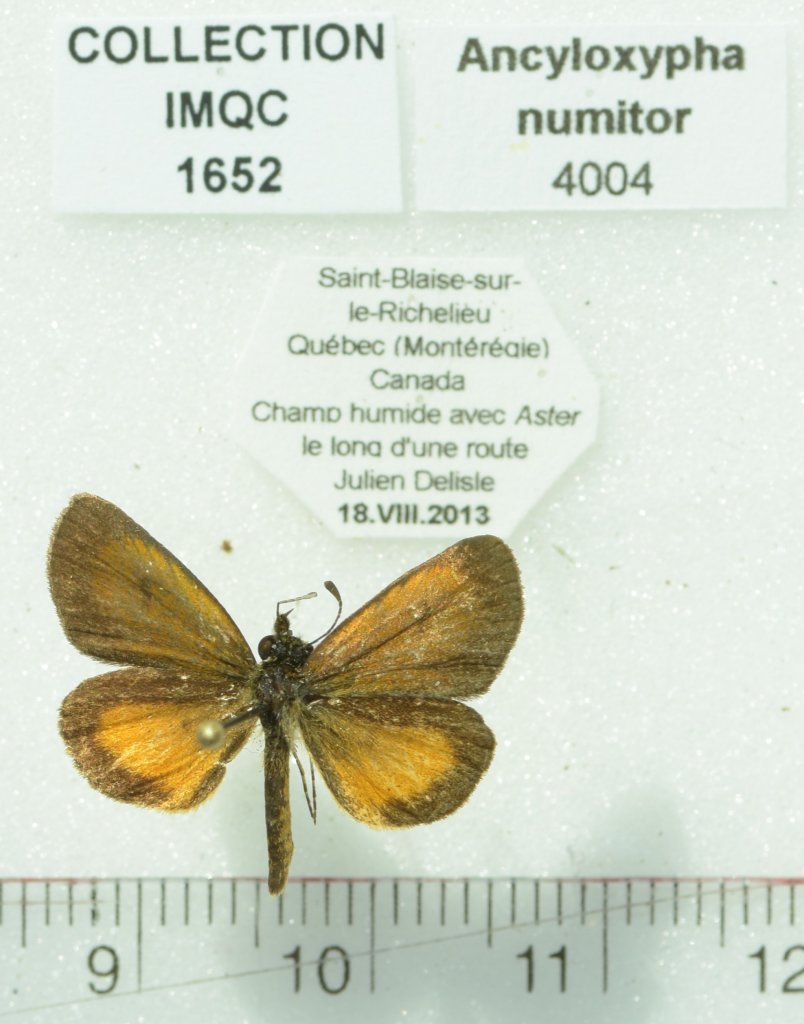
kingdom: Animalia
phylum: Arthropoda
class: Insecta
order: Lepidoptera
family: Hesperiidae
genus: Ancyloxypha
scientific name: Ancyloxypha numitor
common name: Least Skipper
